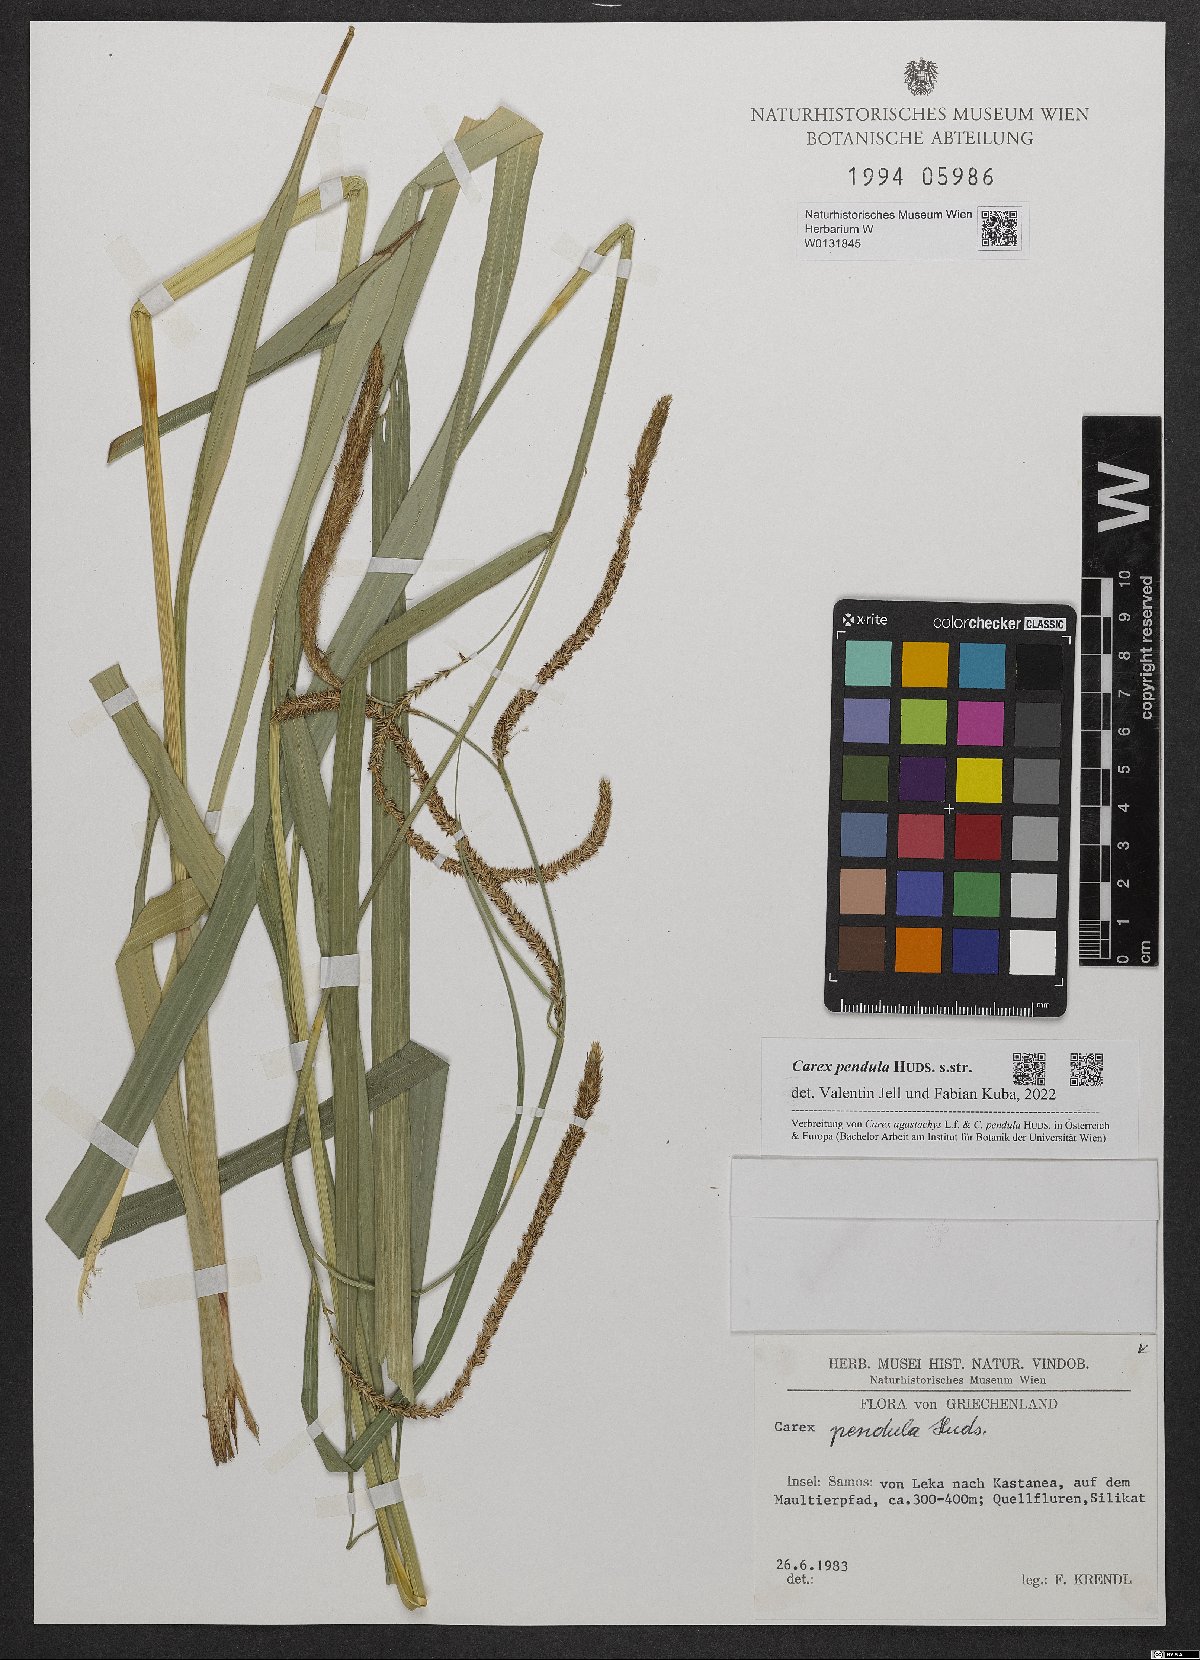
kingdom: Plantae
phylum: Tracheophyta
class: Liliopsida
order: Poales
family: Cyperaceae
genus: Carex
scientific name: Carex pendula
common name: Pendulous sedge
